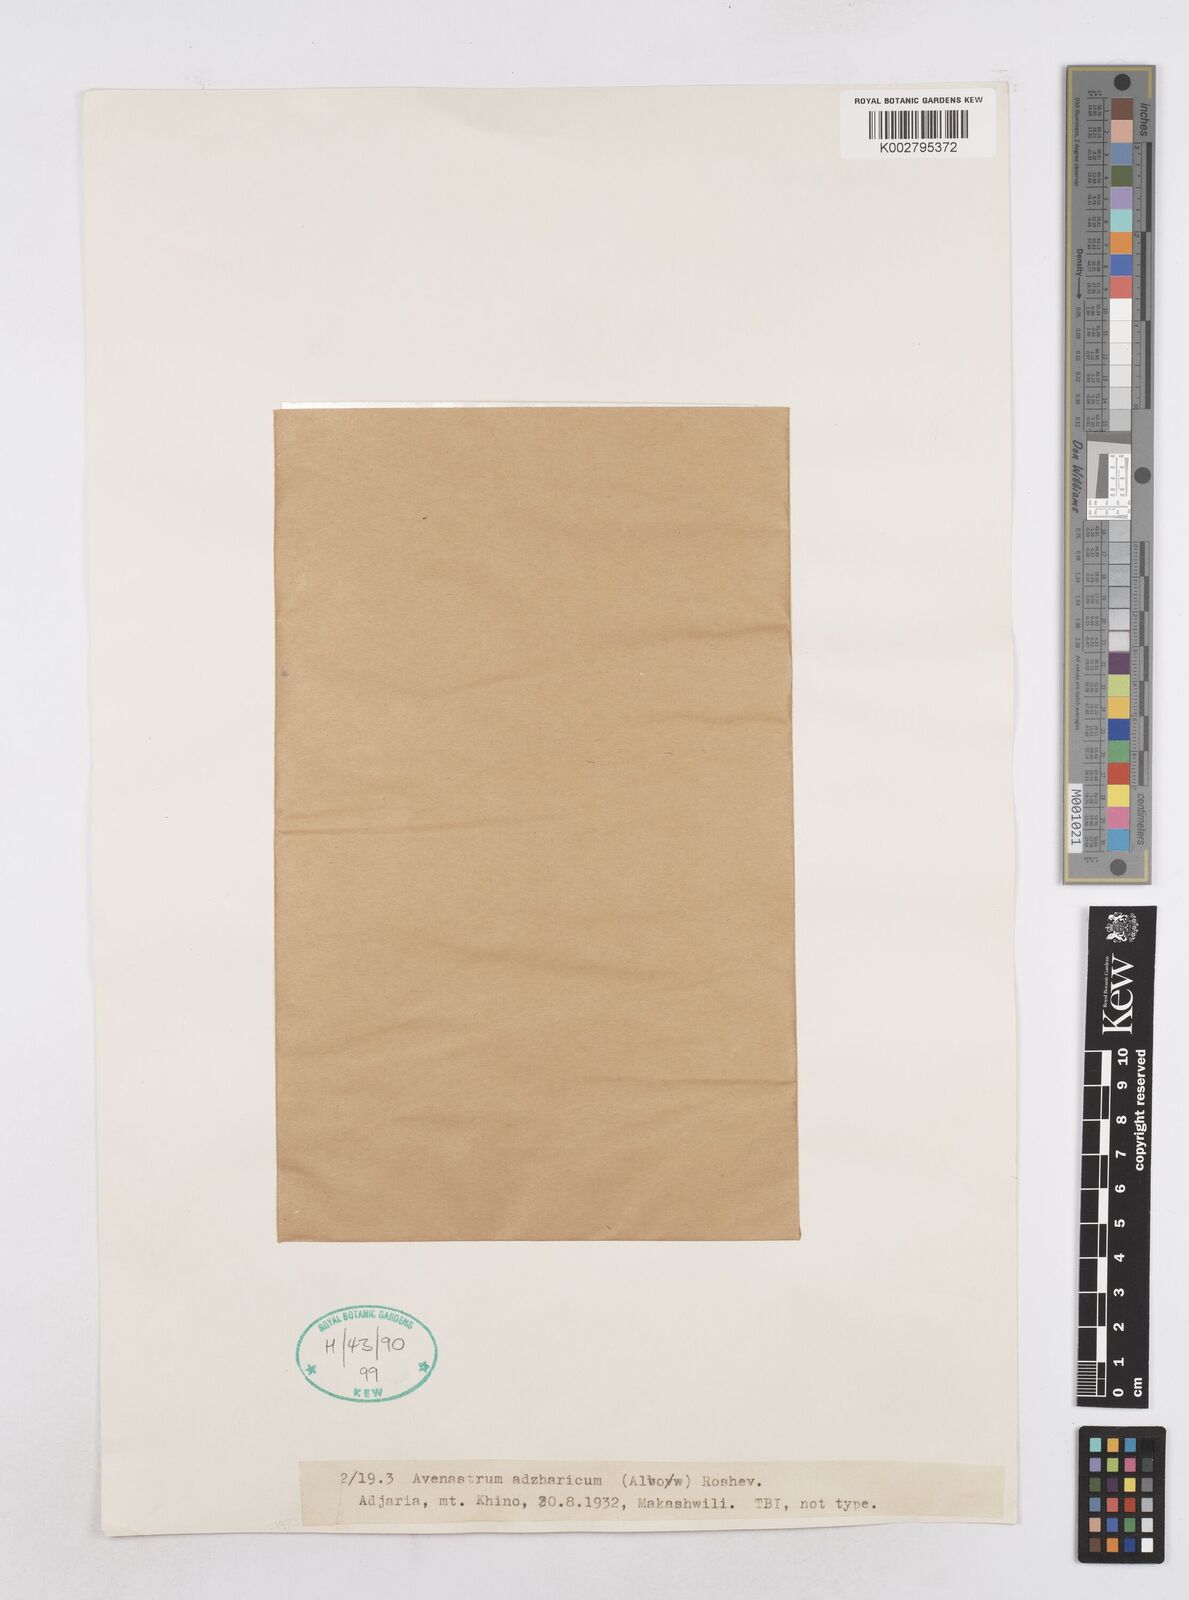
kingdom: Plantae
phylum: Tracheophyta
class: Liliopsida
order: Poales
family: Poaceae
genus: Helictotrichon
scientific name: Helictotrichon
